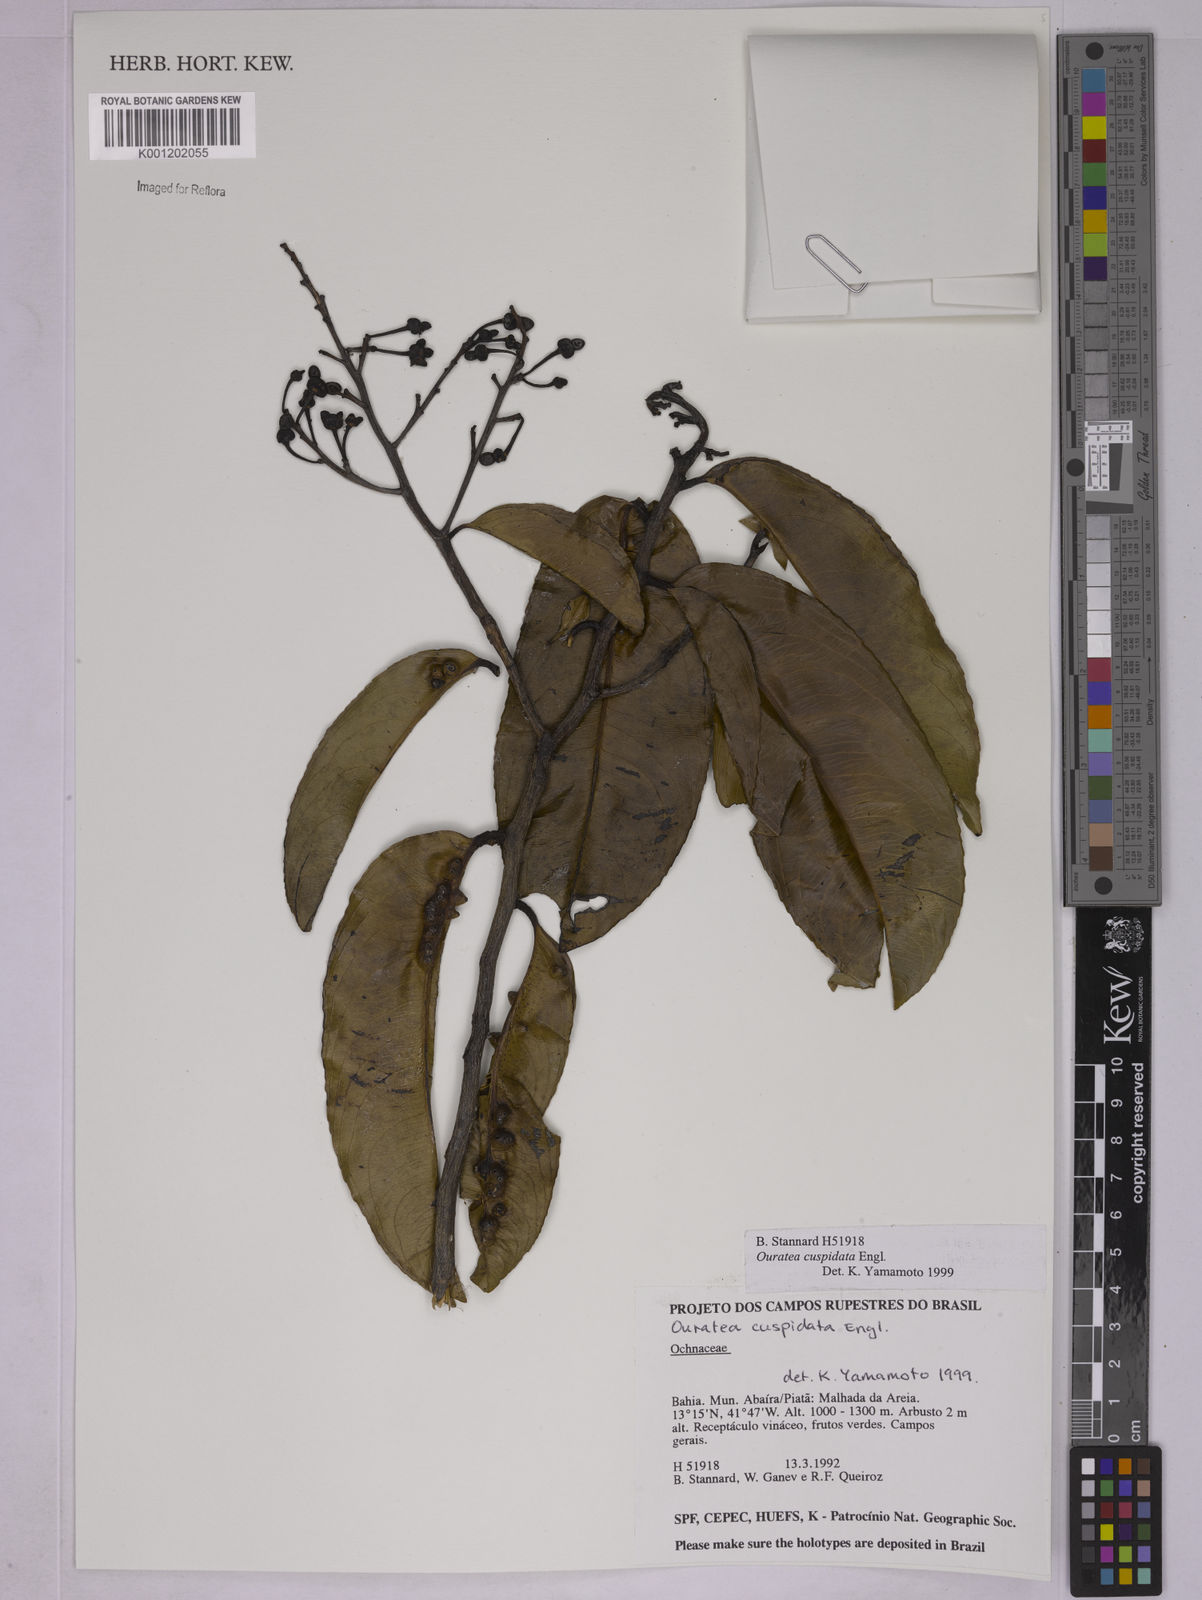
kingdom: Plantae
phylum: Tracheophyta
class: Magnoliopsida
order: Malpighiales
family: Ochnaceae
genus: Ouratea
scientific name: Ouratea cuspidata
